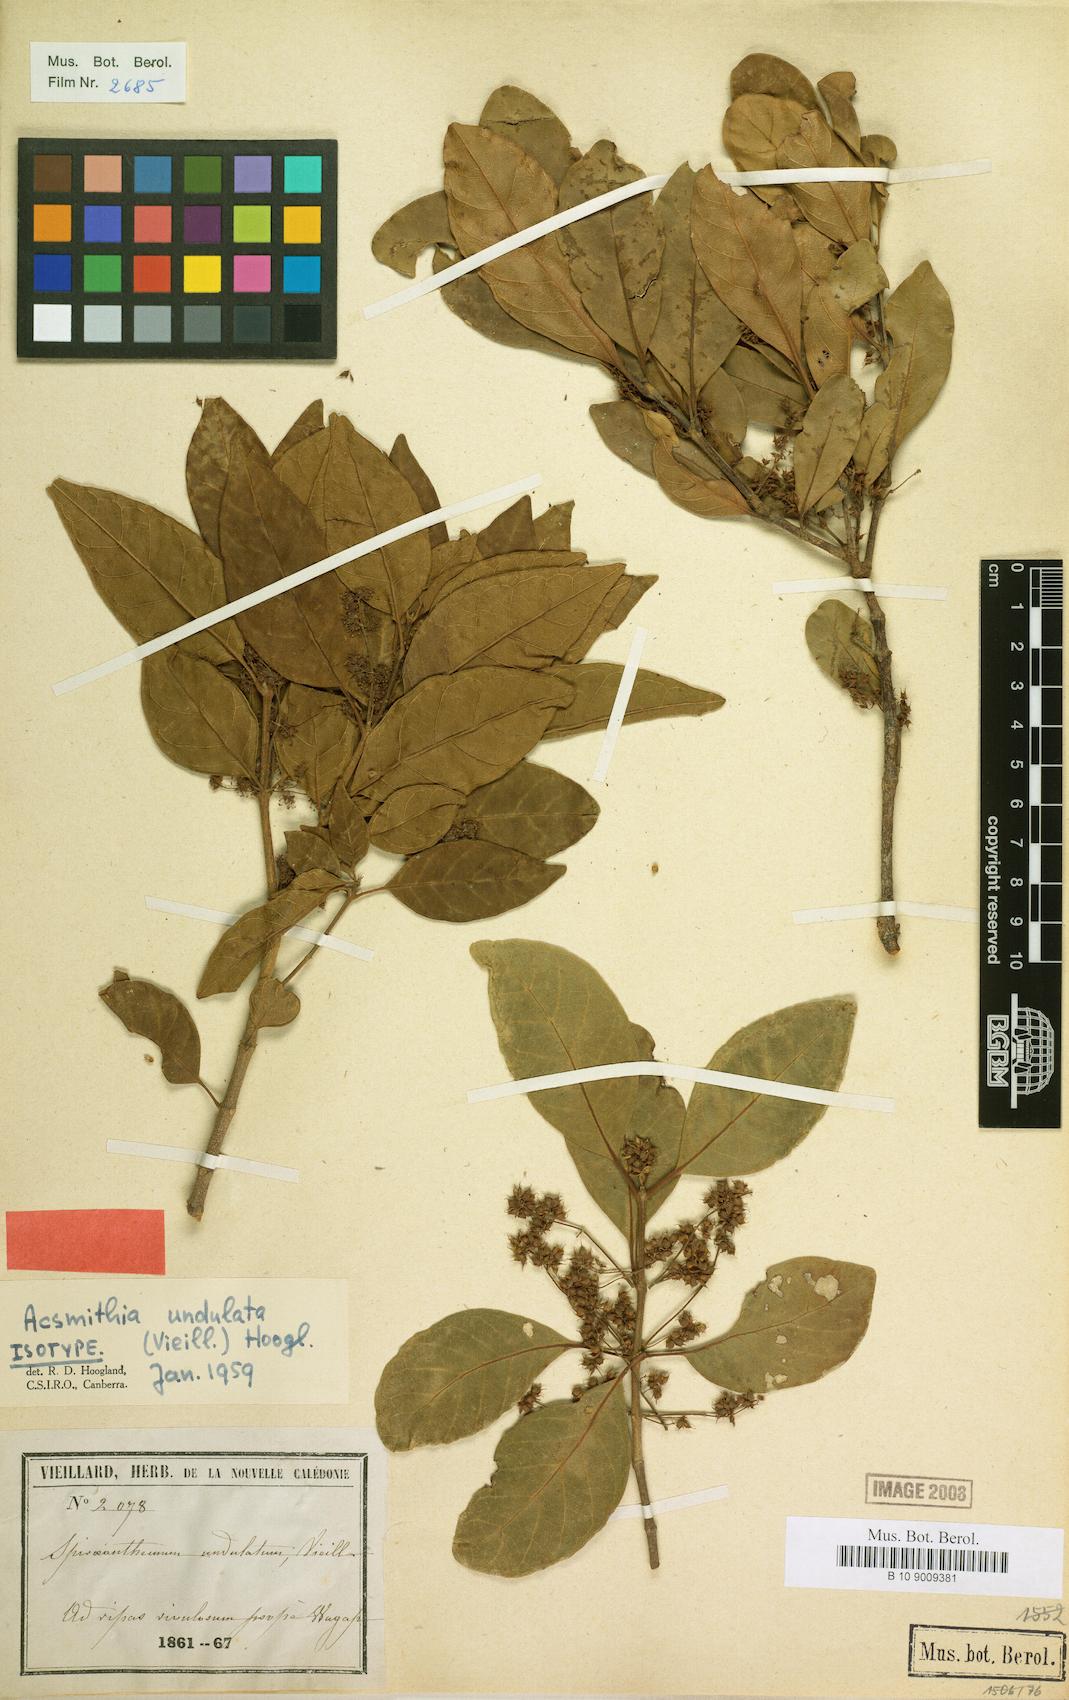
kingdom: Plantae
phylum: Tracheophyta
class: Magnoliopsida
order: Oxalidales
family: Cunoniaceae
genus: Spiraeanthemum
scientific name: Spiraeanthemum densiflorum
